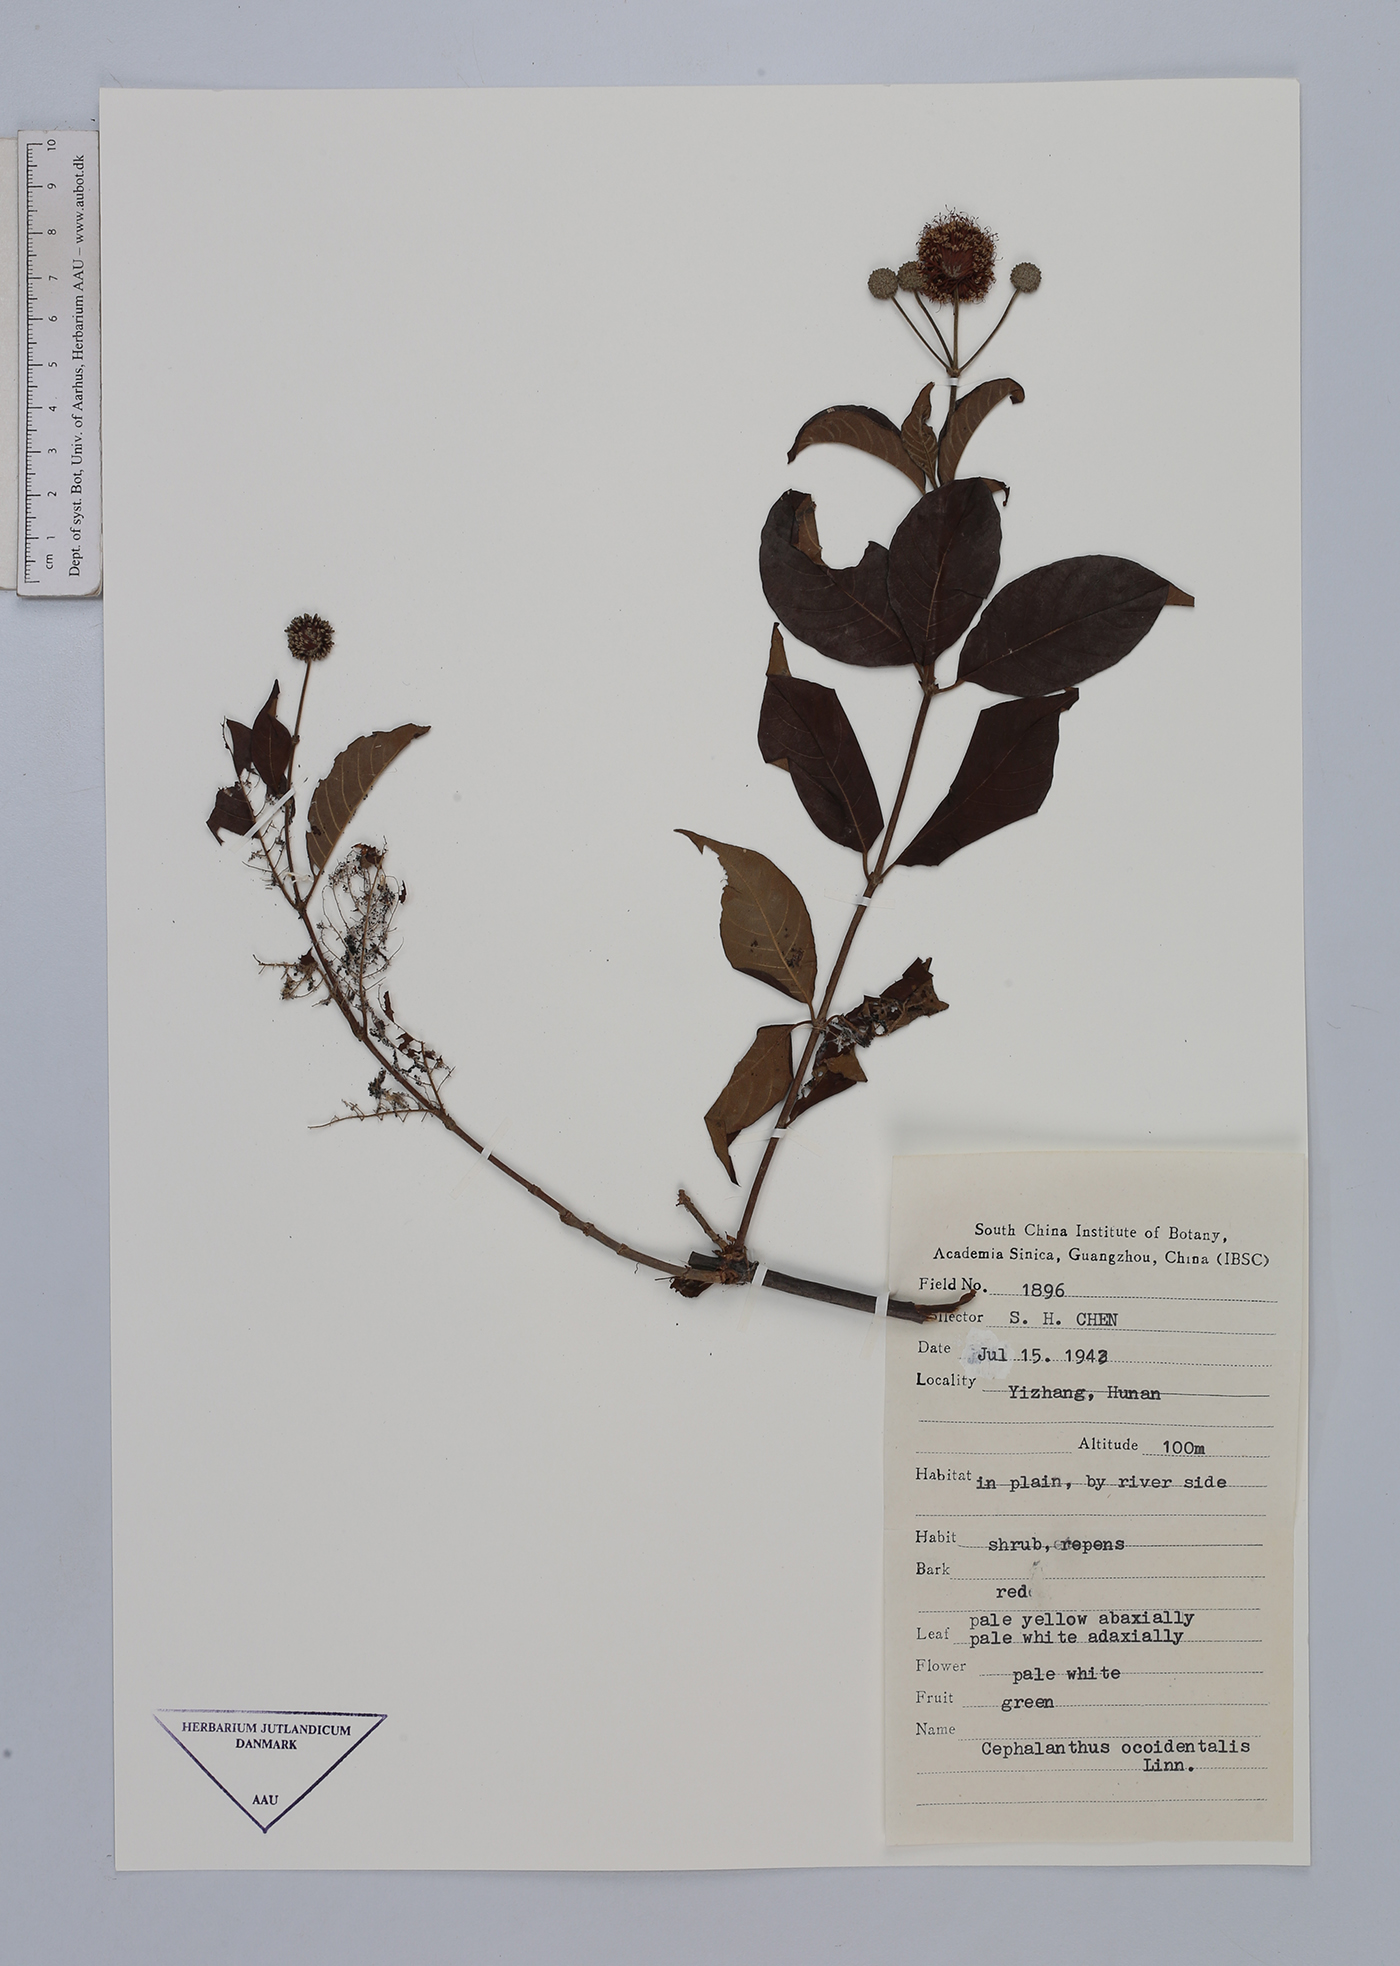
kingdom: Plantae
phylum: Tracheophyta
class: Magnoliopsida
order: Gentianales
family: Rubiaceae
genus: Cephalanthus
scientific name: Cephalanthus occidentalis
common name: Button-willow
